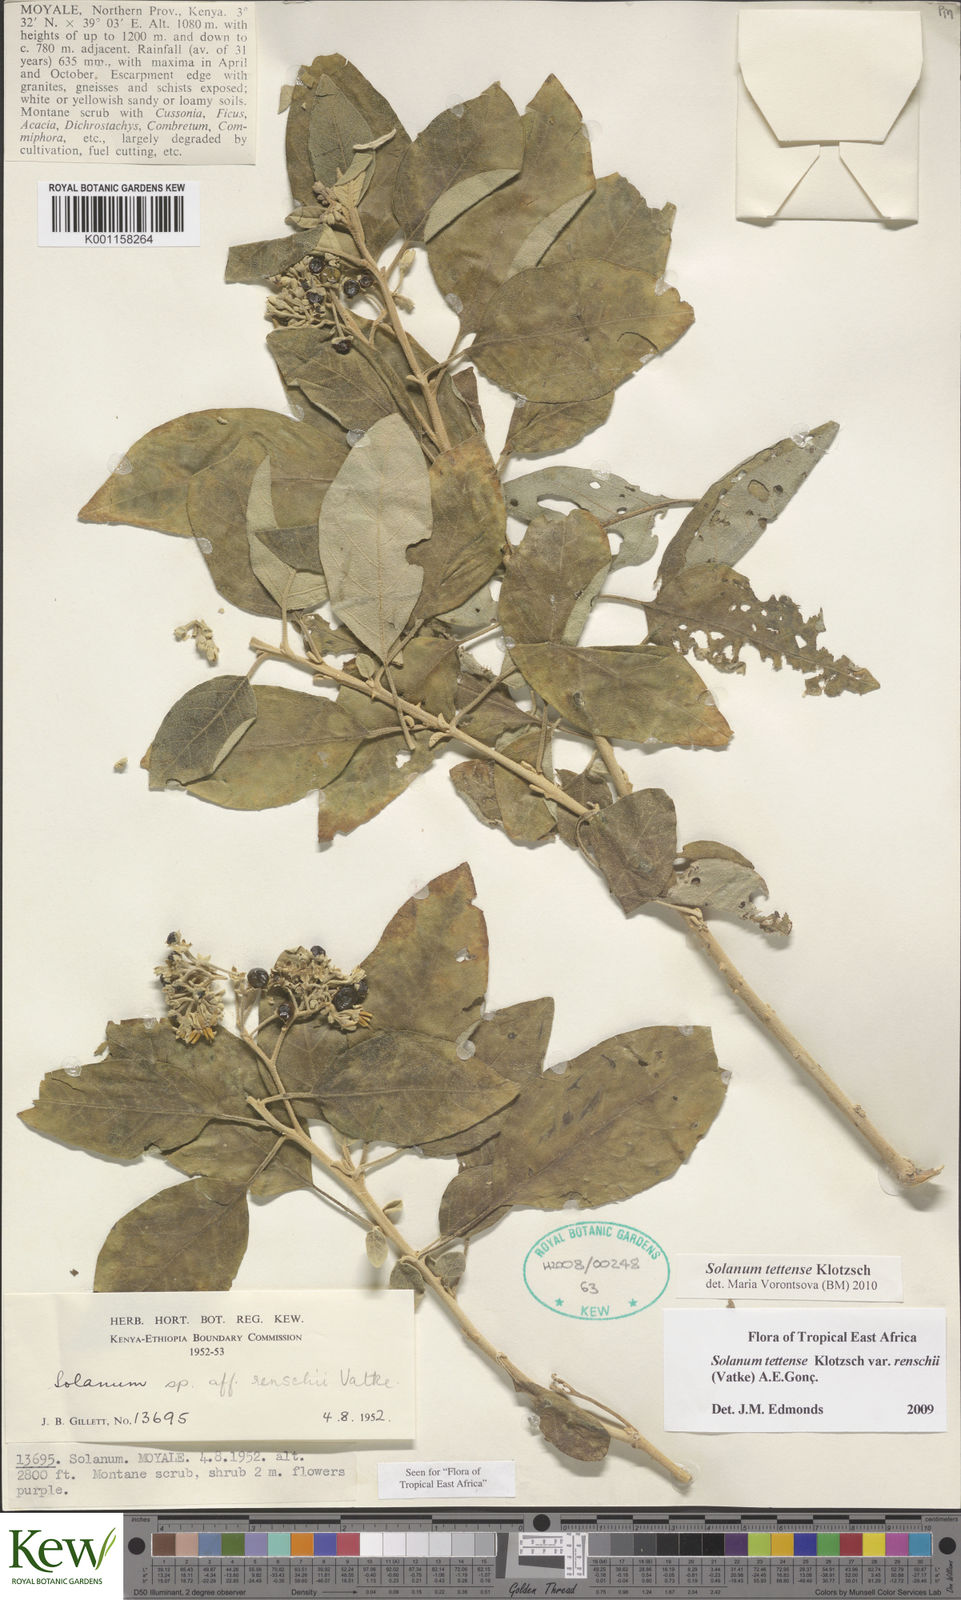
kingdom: Plantae
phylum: Tracheophyta
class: Magnoliopsida
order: Solanales
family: Solanaceae
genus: Solanum
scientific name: Solanum tettense
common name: Mozambique bitter apple
